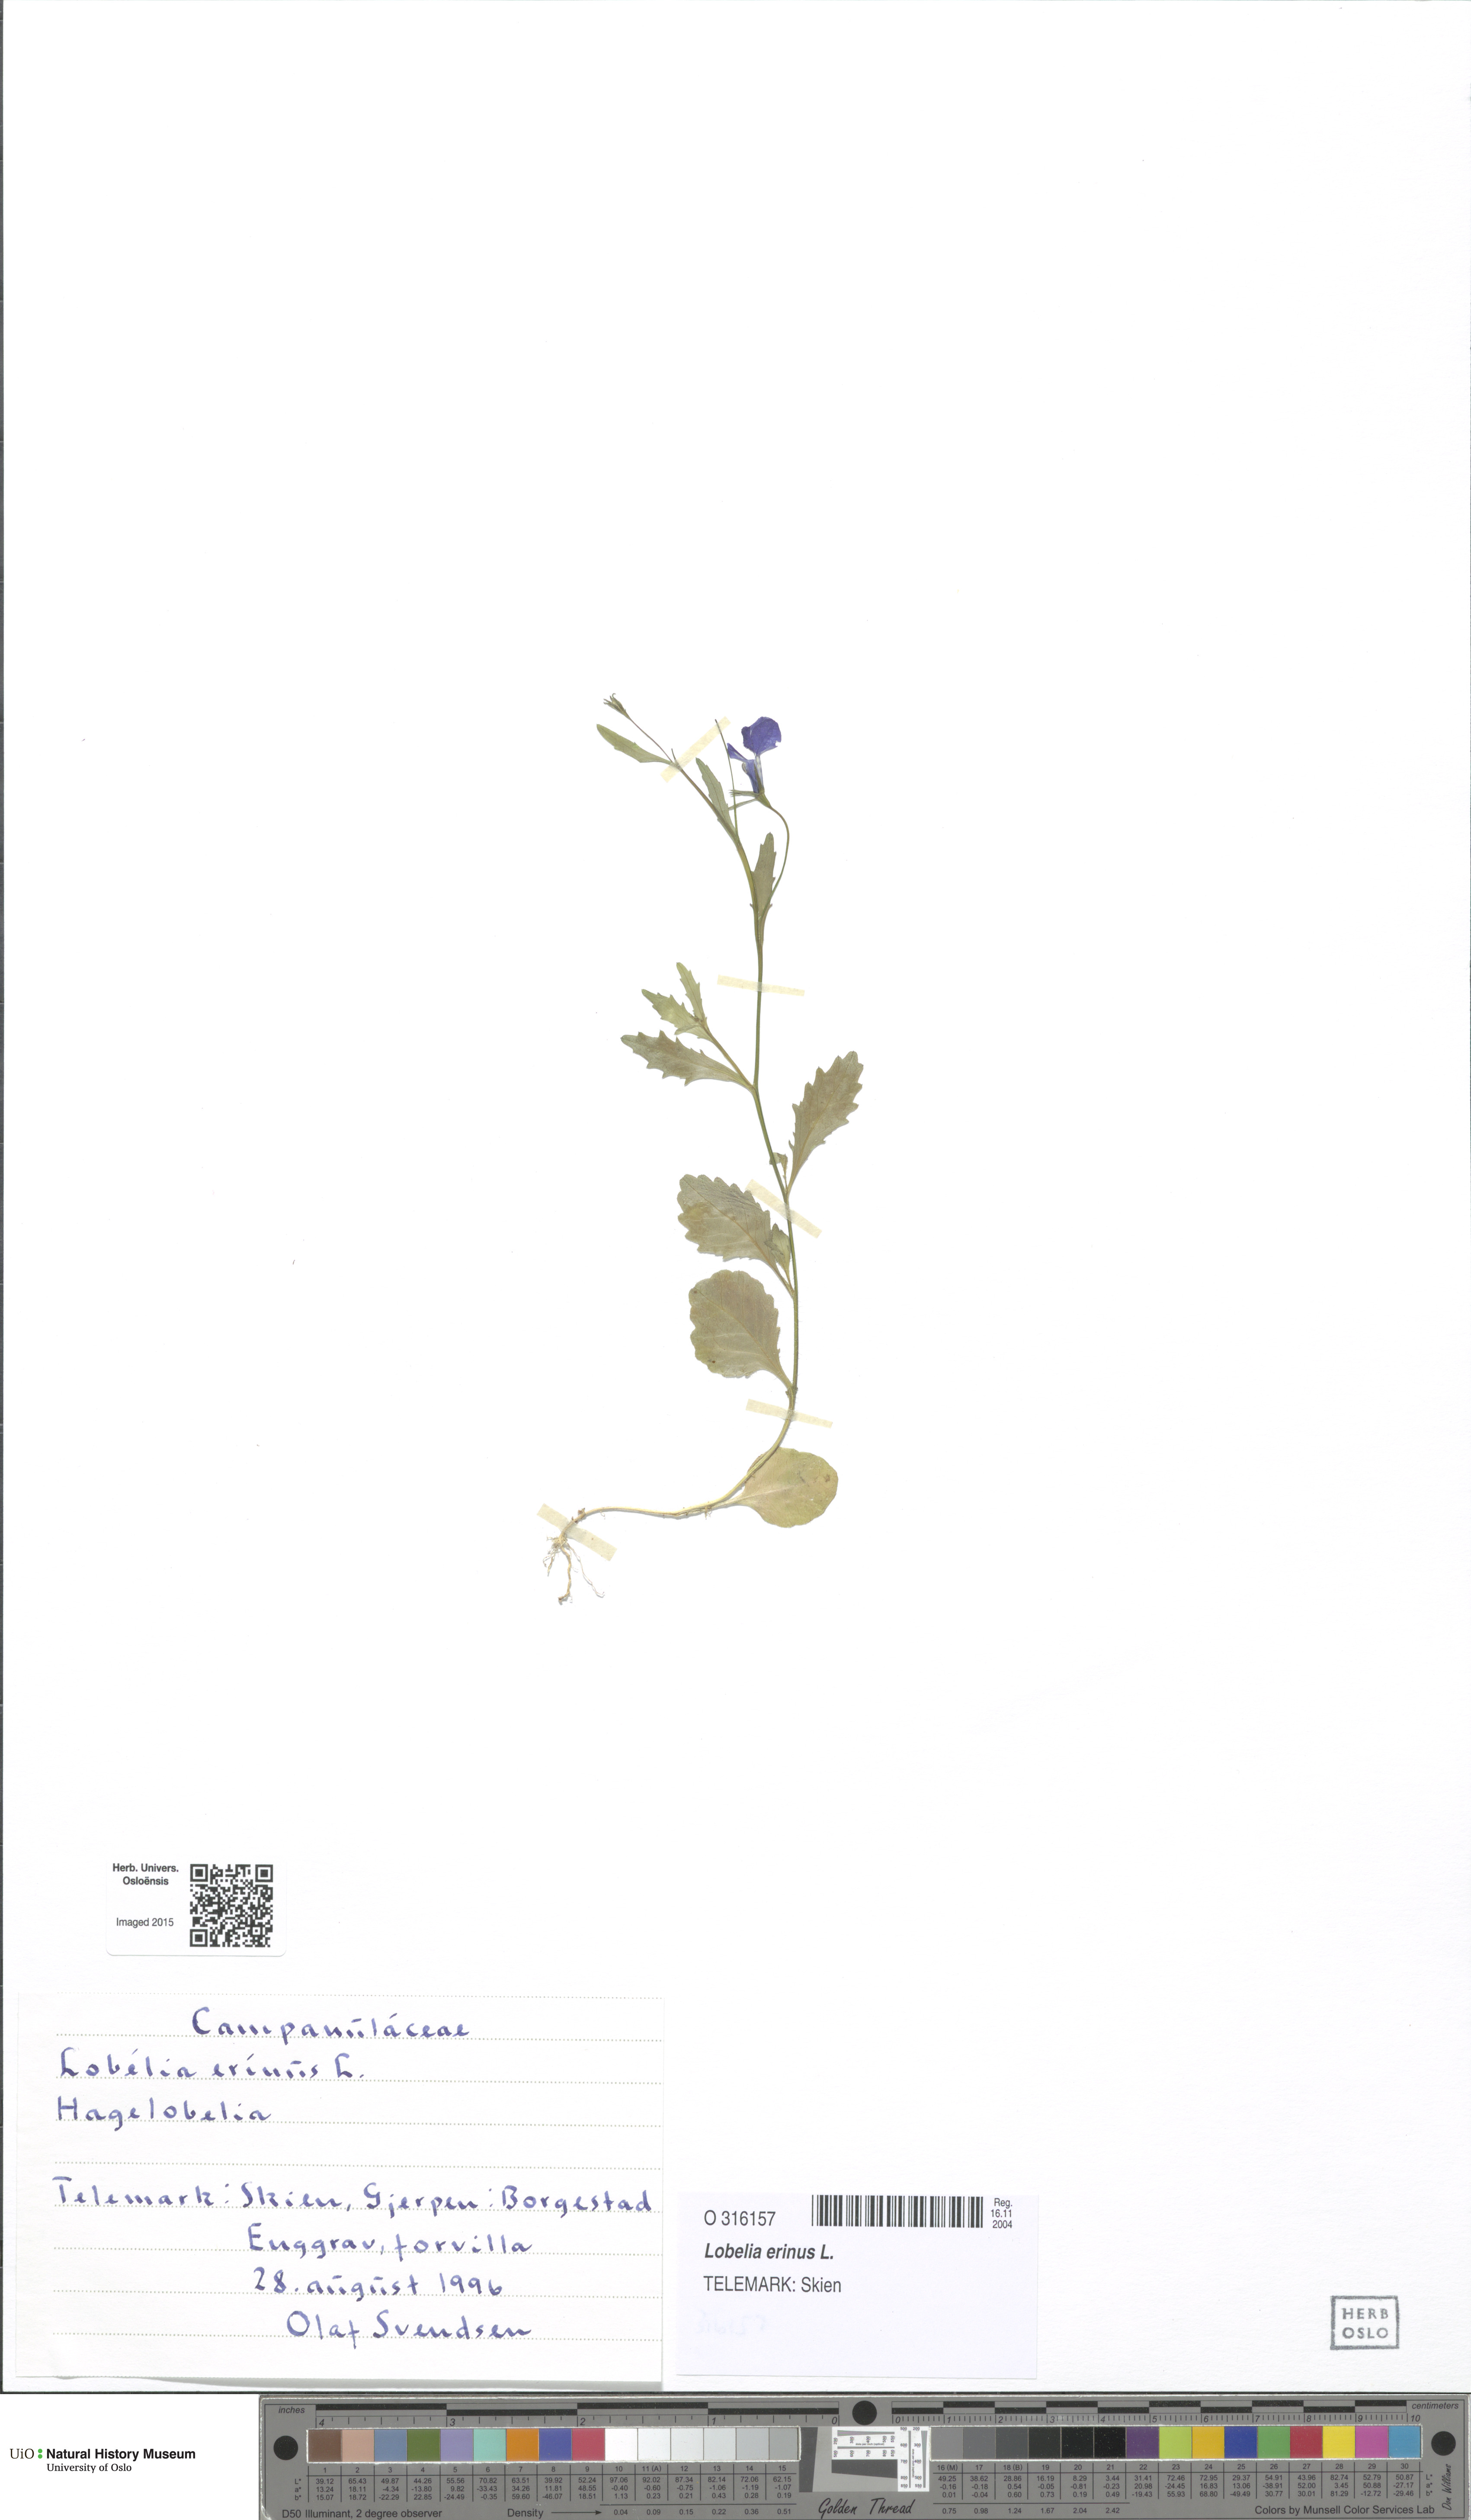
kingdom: Plantae
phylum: Tracheophyta
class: Magnoliopsida
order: Asterales
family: Campanulaceae
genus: Lobelia
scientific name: Lobelia erinus
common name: Edging lobelia
